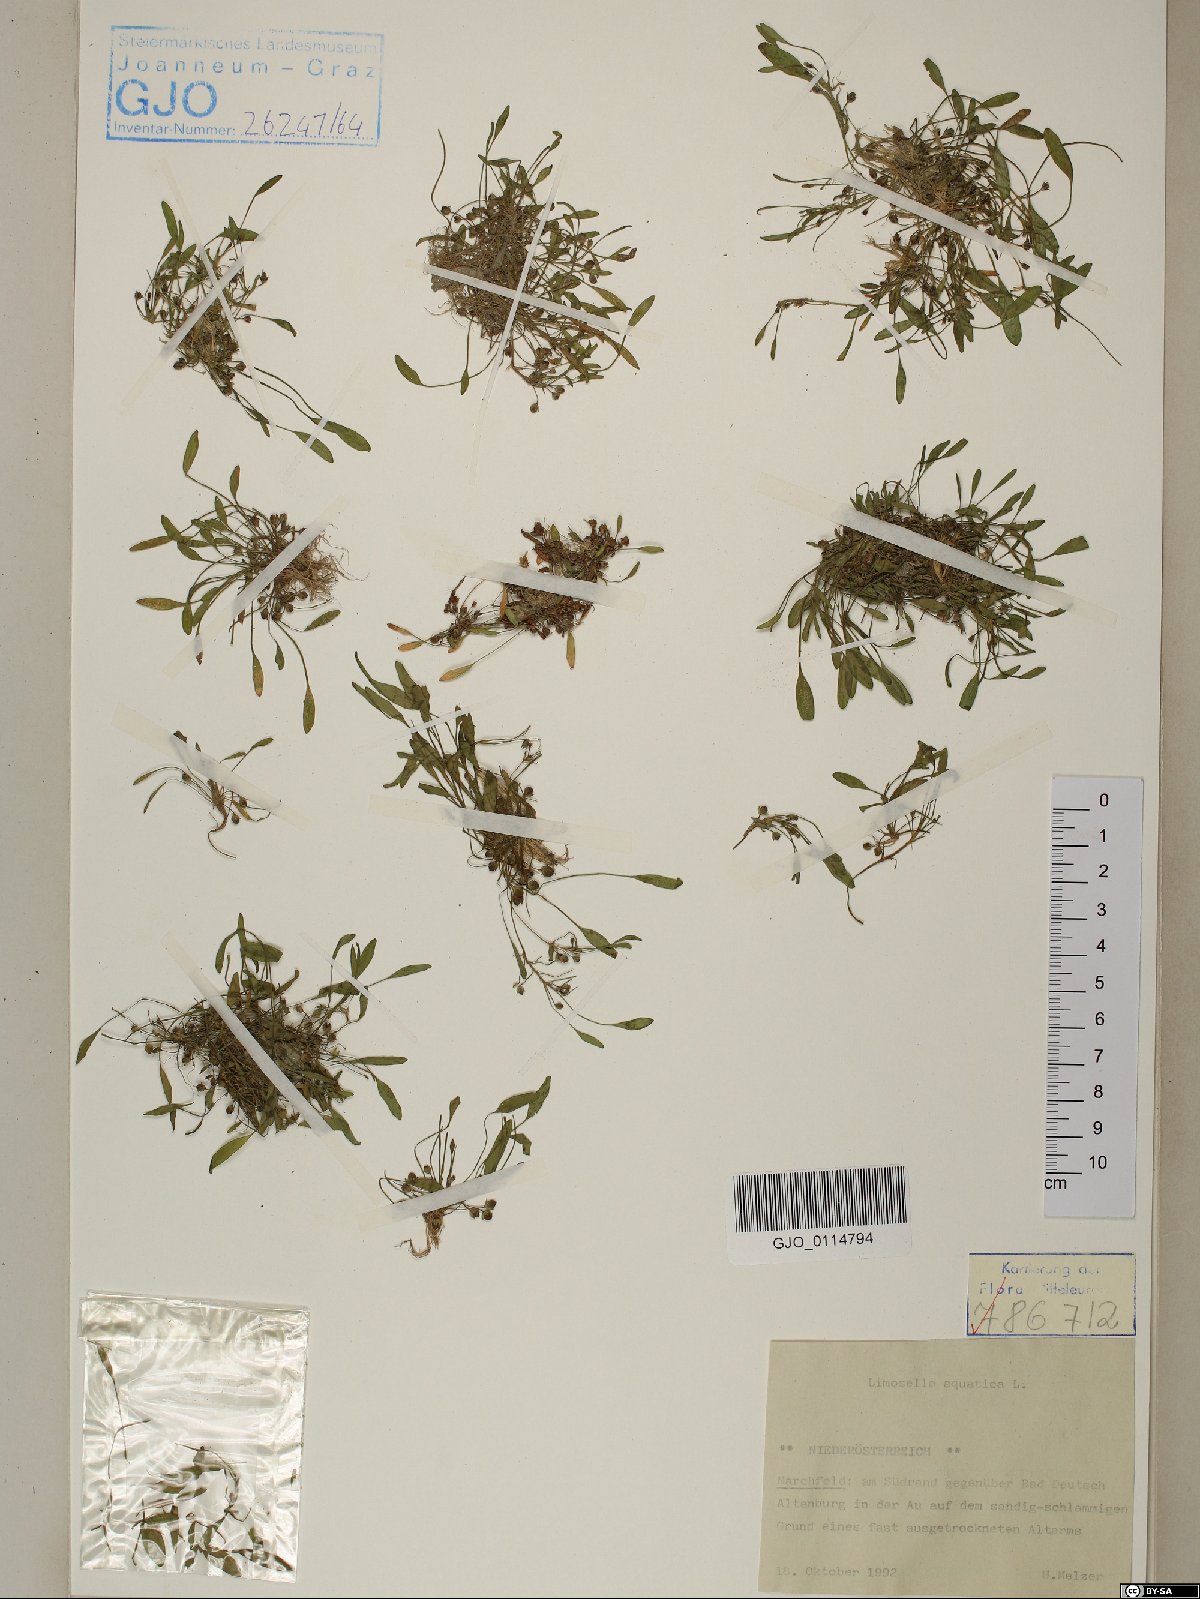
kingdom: Plantae
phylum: Tracheophyta
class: Magnoliopsida
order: Lamiales
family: Scrophulariaceae
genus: Limosella
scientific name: Limosella aquatica
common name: Mudwort
